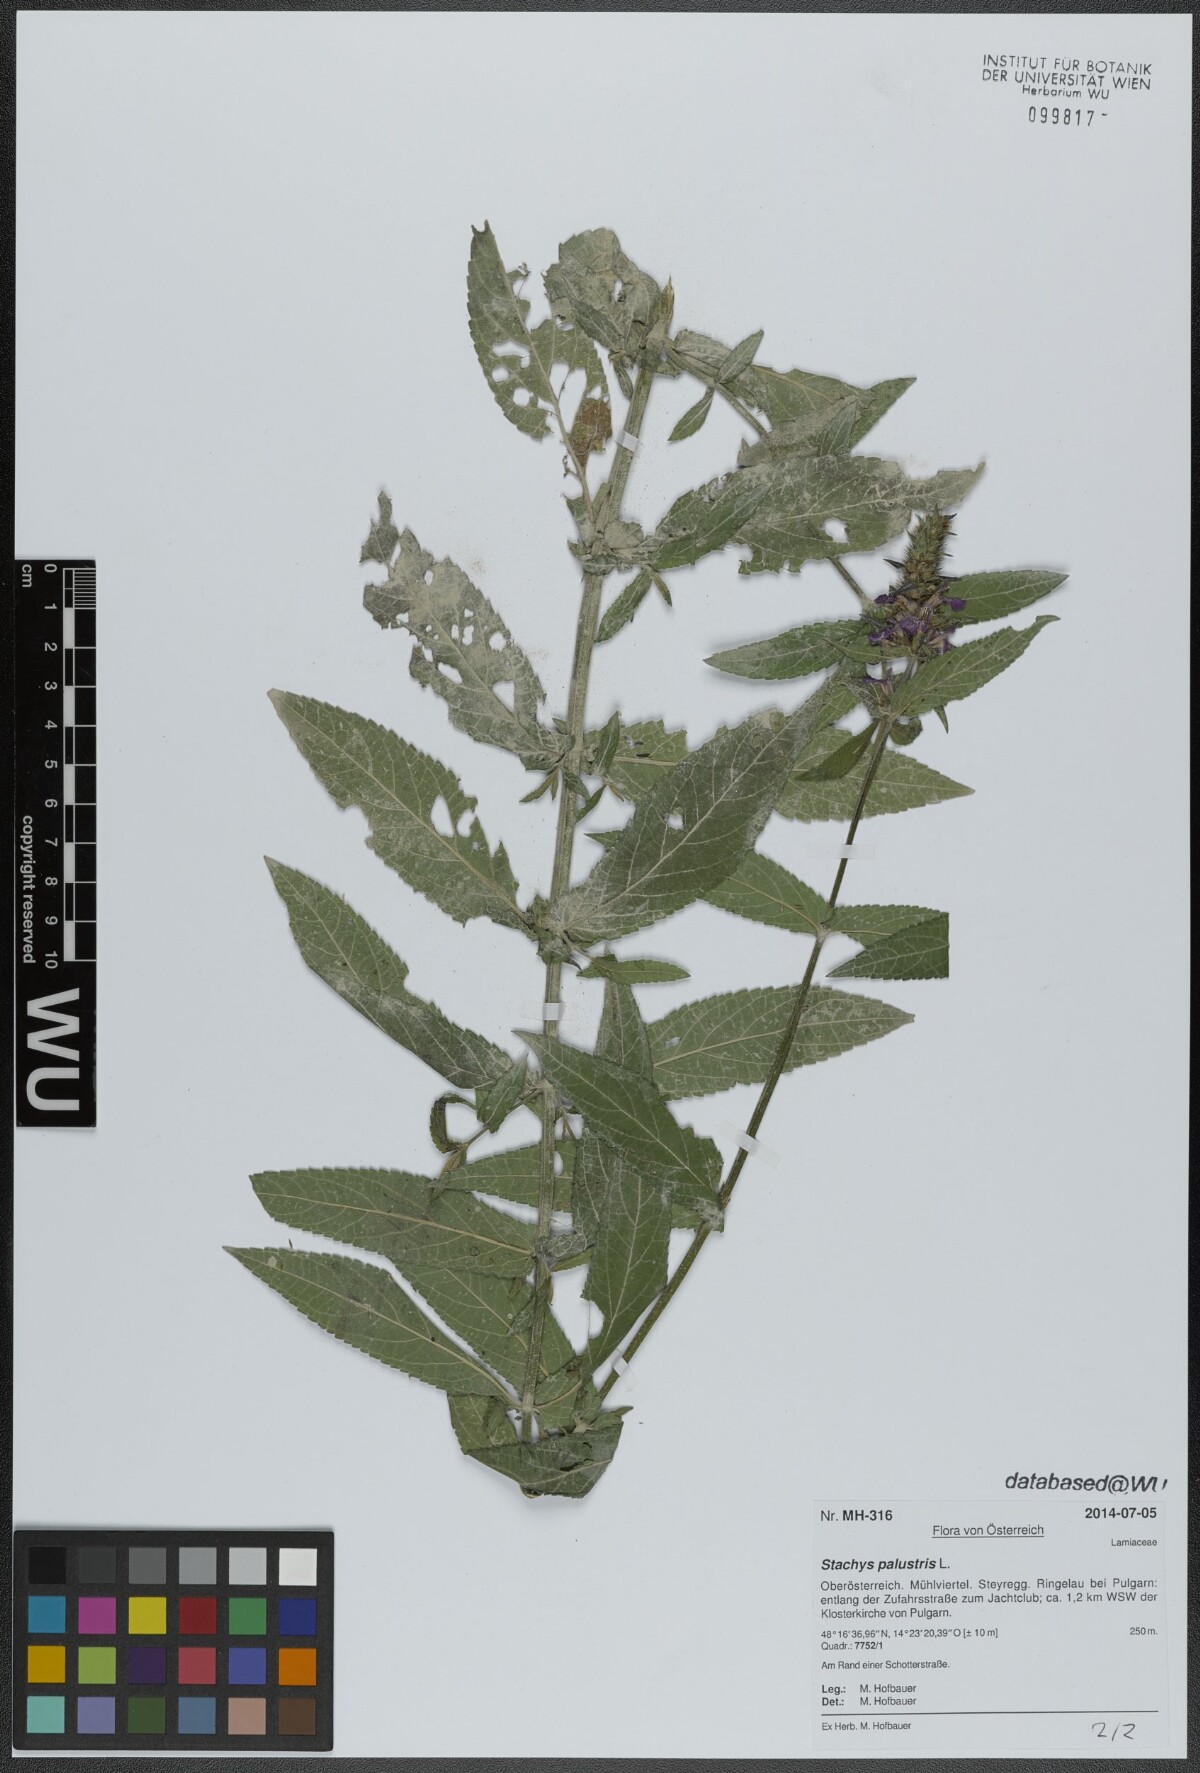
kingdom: Plantae
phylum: Tracheophyta
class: Magnoliopsida
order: Lamiales
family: Lamiaceae
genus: Stachys
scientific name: Stachys palustris
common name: Marsh woundwort
